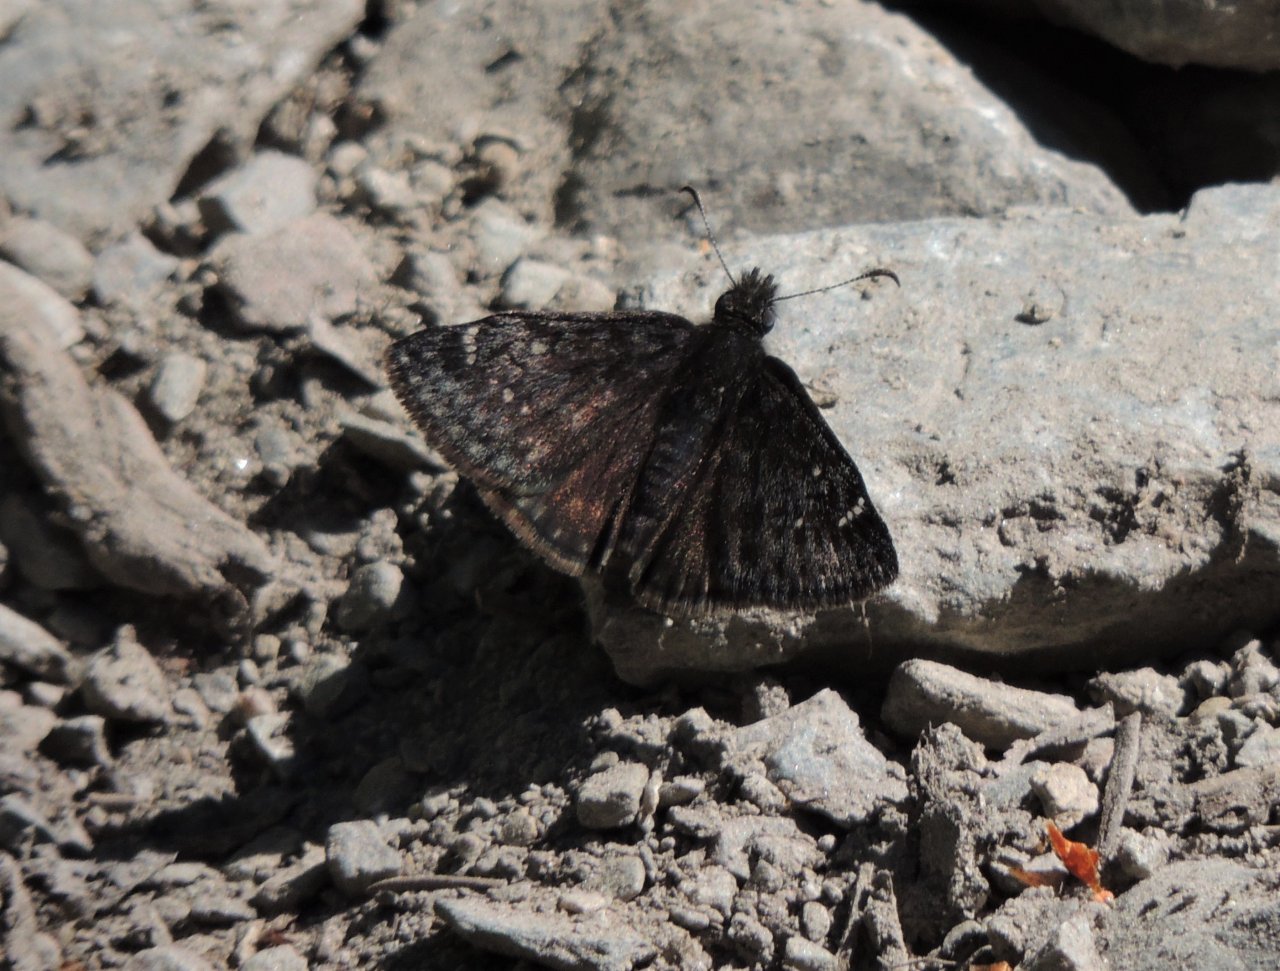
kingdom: Animalia
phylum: Arthropoda
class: Insecta
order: Lepidoptera
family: Hesperiidae
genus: Gesta
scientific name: Gesta
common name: Persius Duskywing
